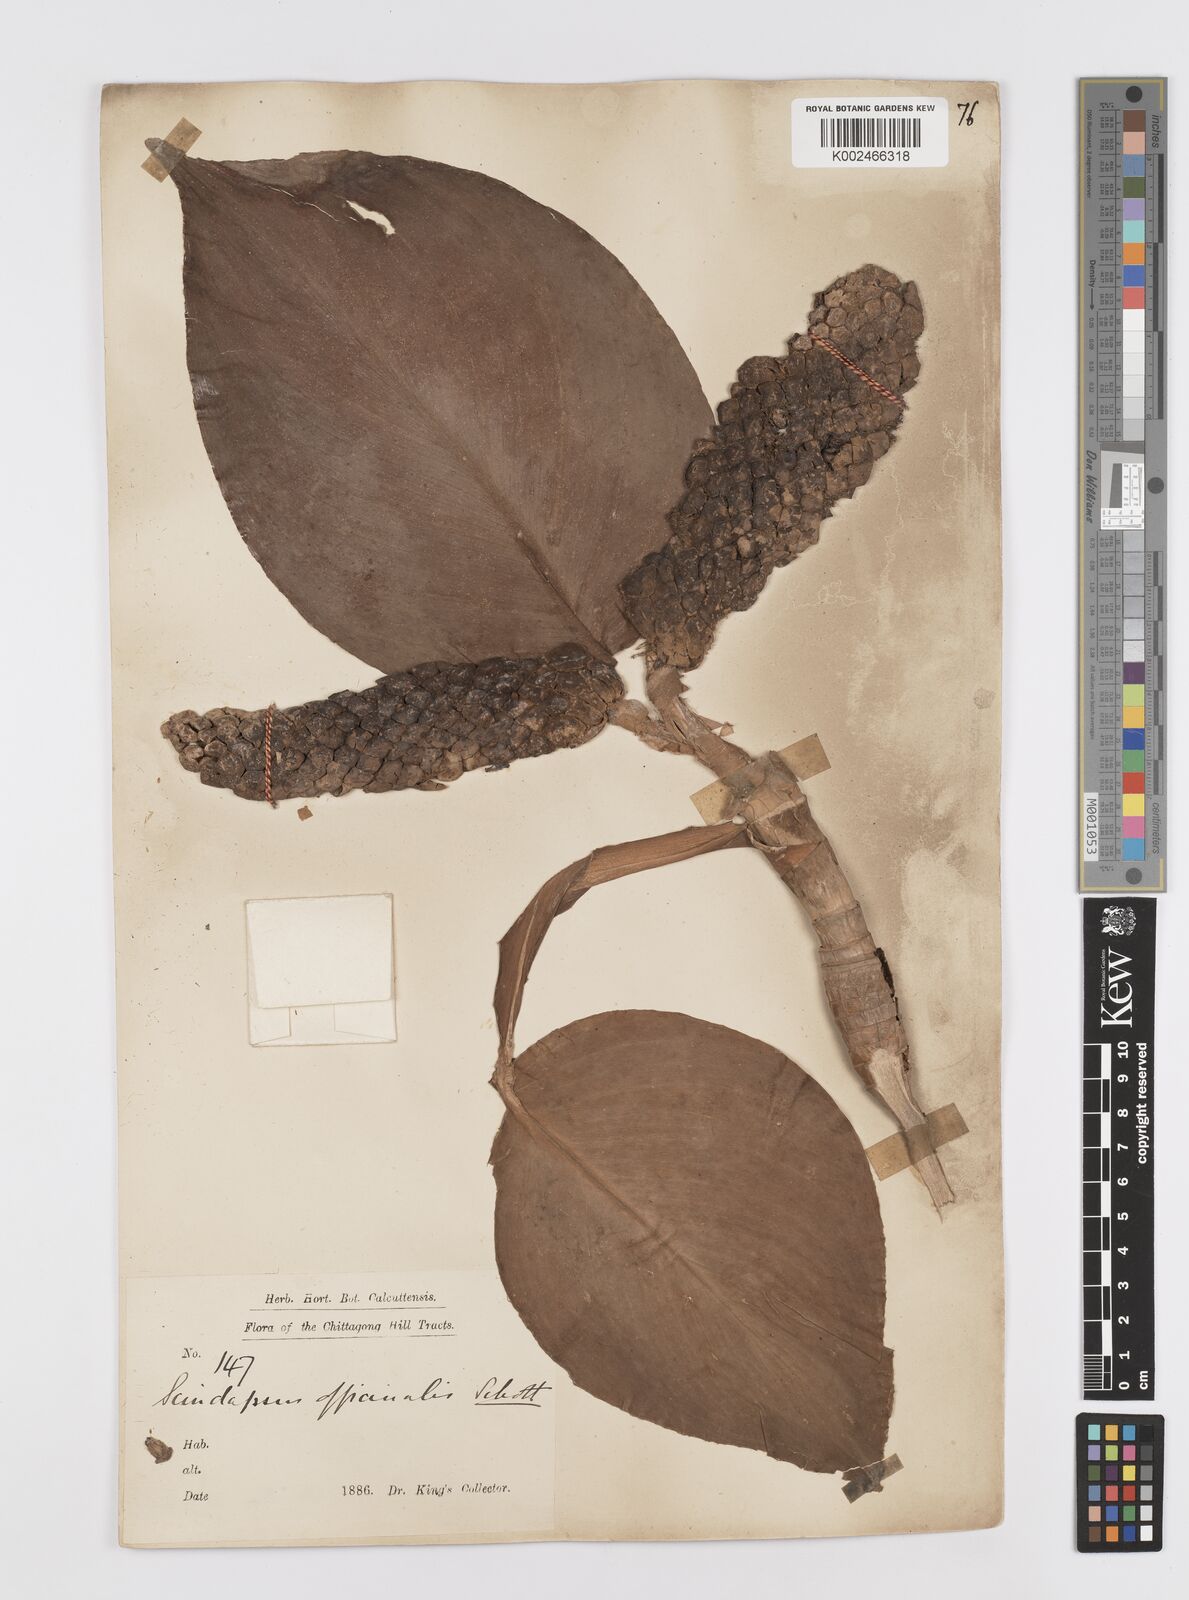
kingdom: Plantae
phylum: Tracheophyta
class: Liliopsida
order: Alismatales
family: Araceae
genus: Scindapsus
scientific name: Scindapsus officinalis
